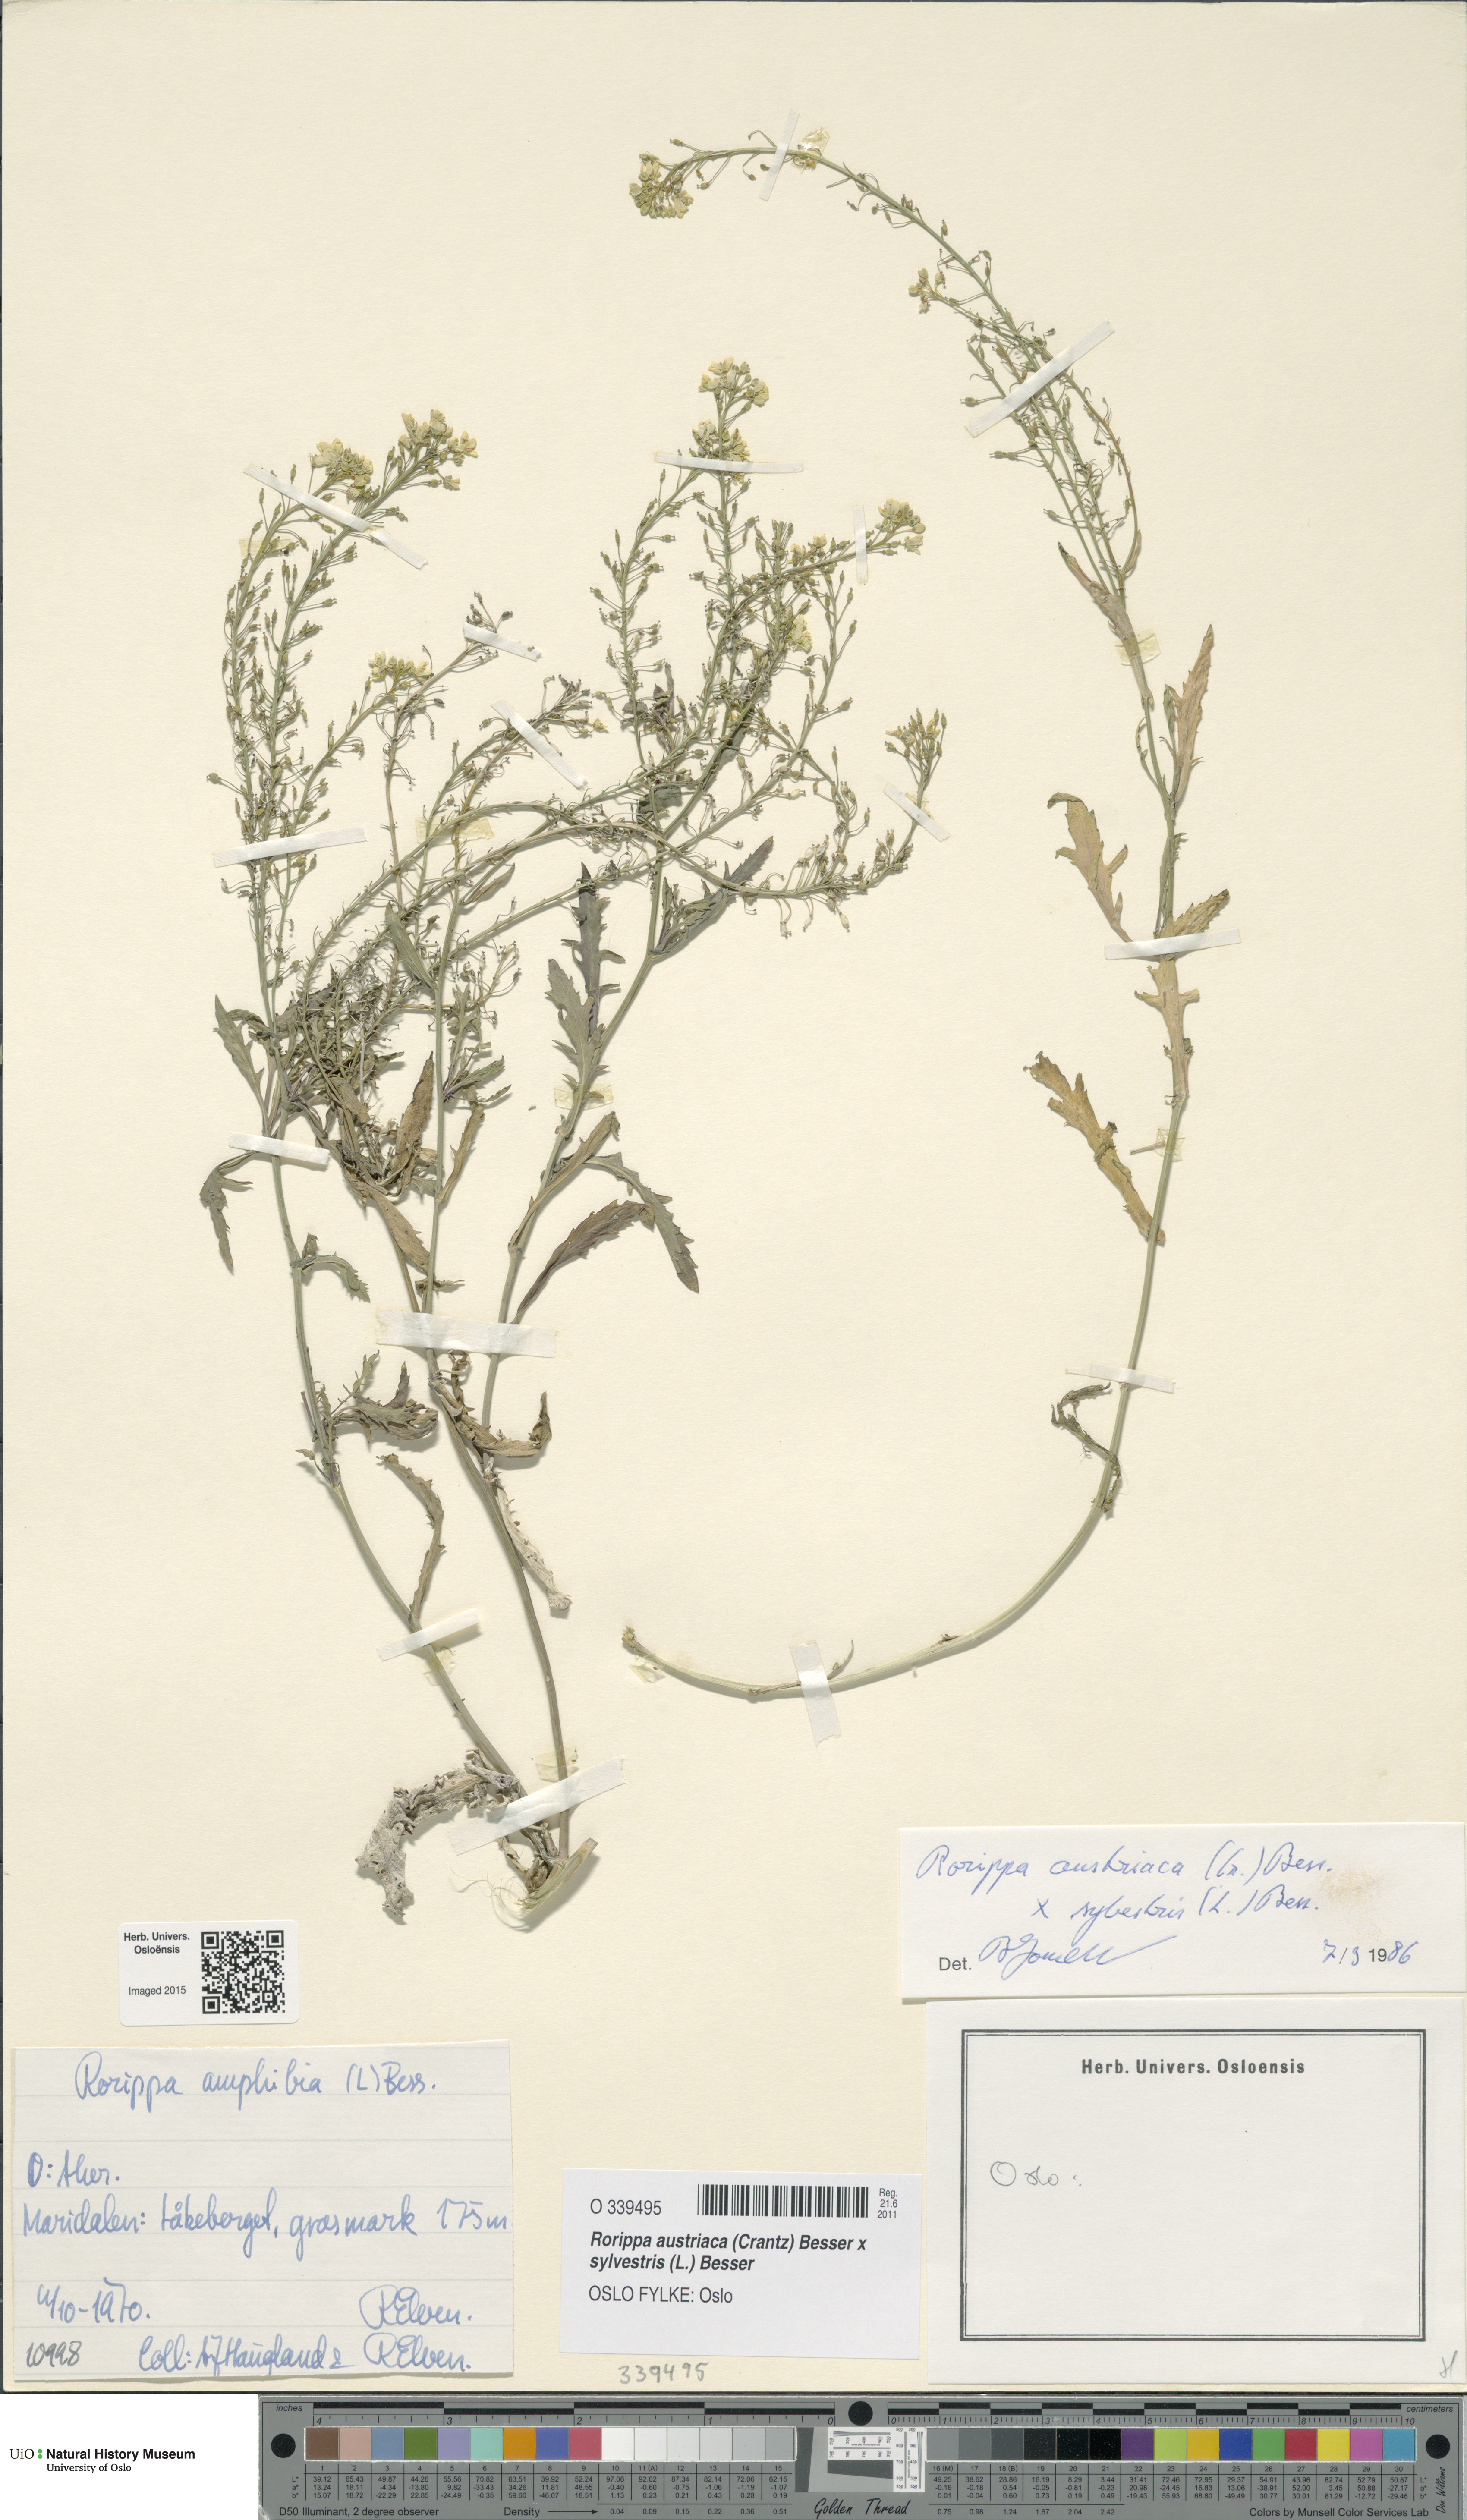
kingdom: Plantae
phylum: Tracheophyta
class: Magnoliopsida
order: Brassicales
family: Brassicaceae
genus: Rorippa
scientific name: Rorippa
